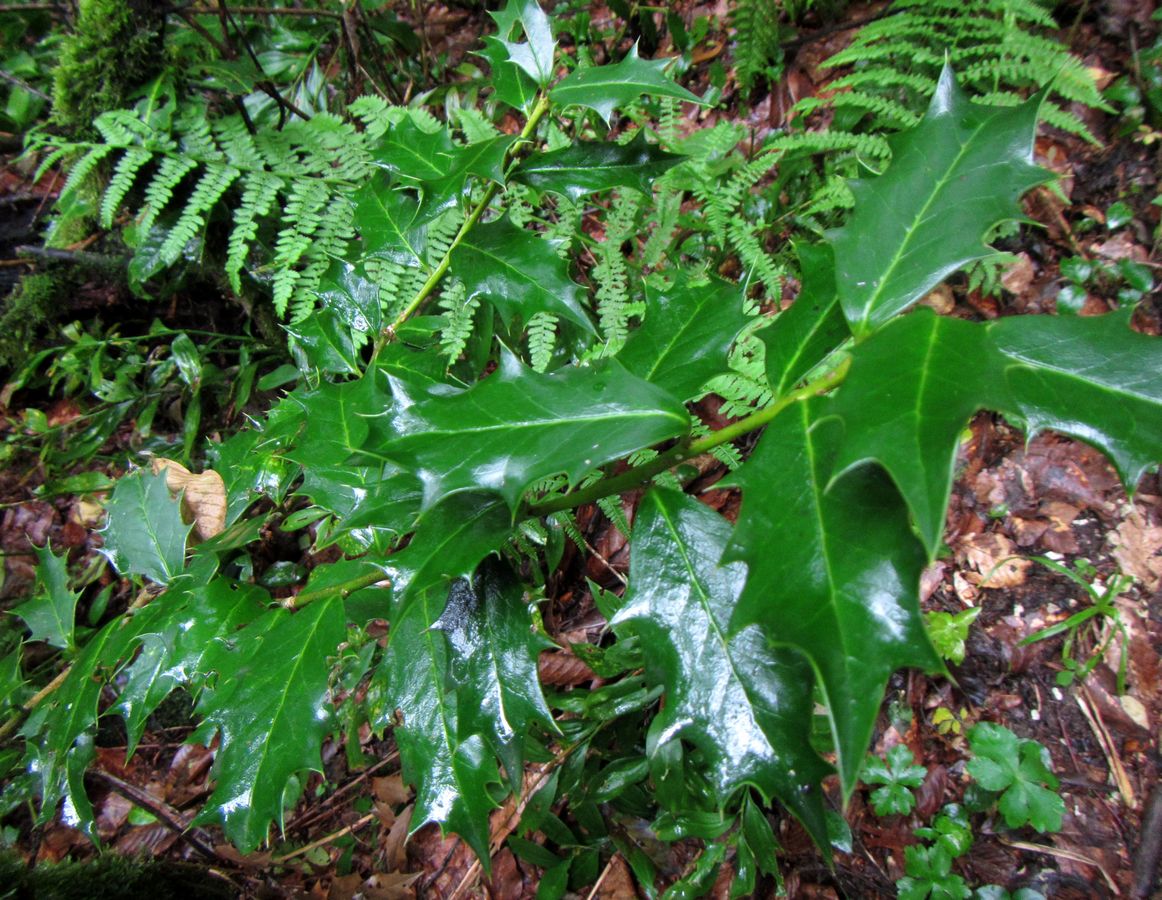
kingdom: Plantae
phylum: Tracheophyta
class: Magnoliopsida
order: Aquifoliales
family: Aquifoliaceae
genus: Ilex
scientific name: Ilex colchica
